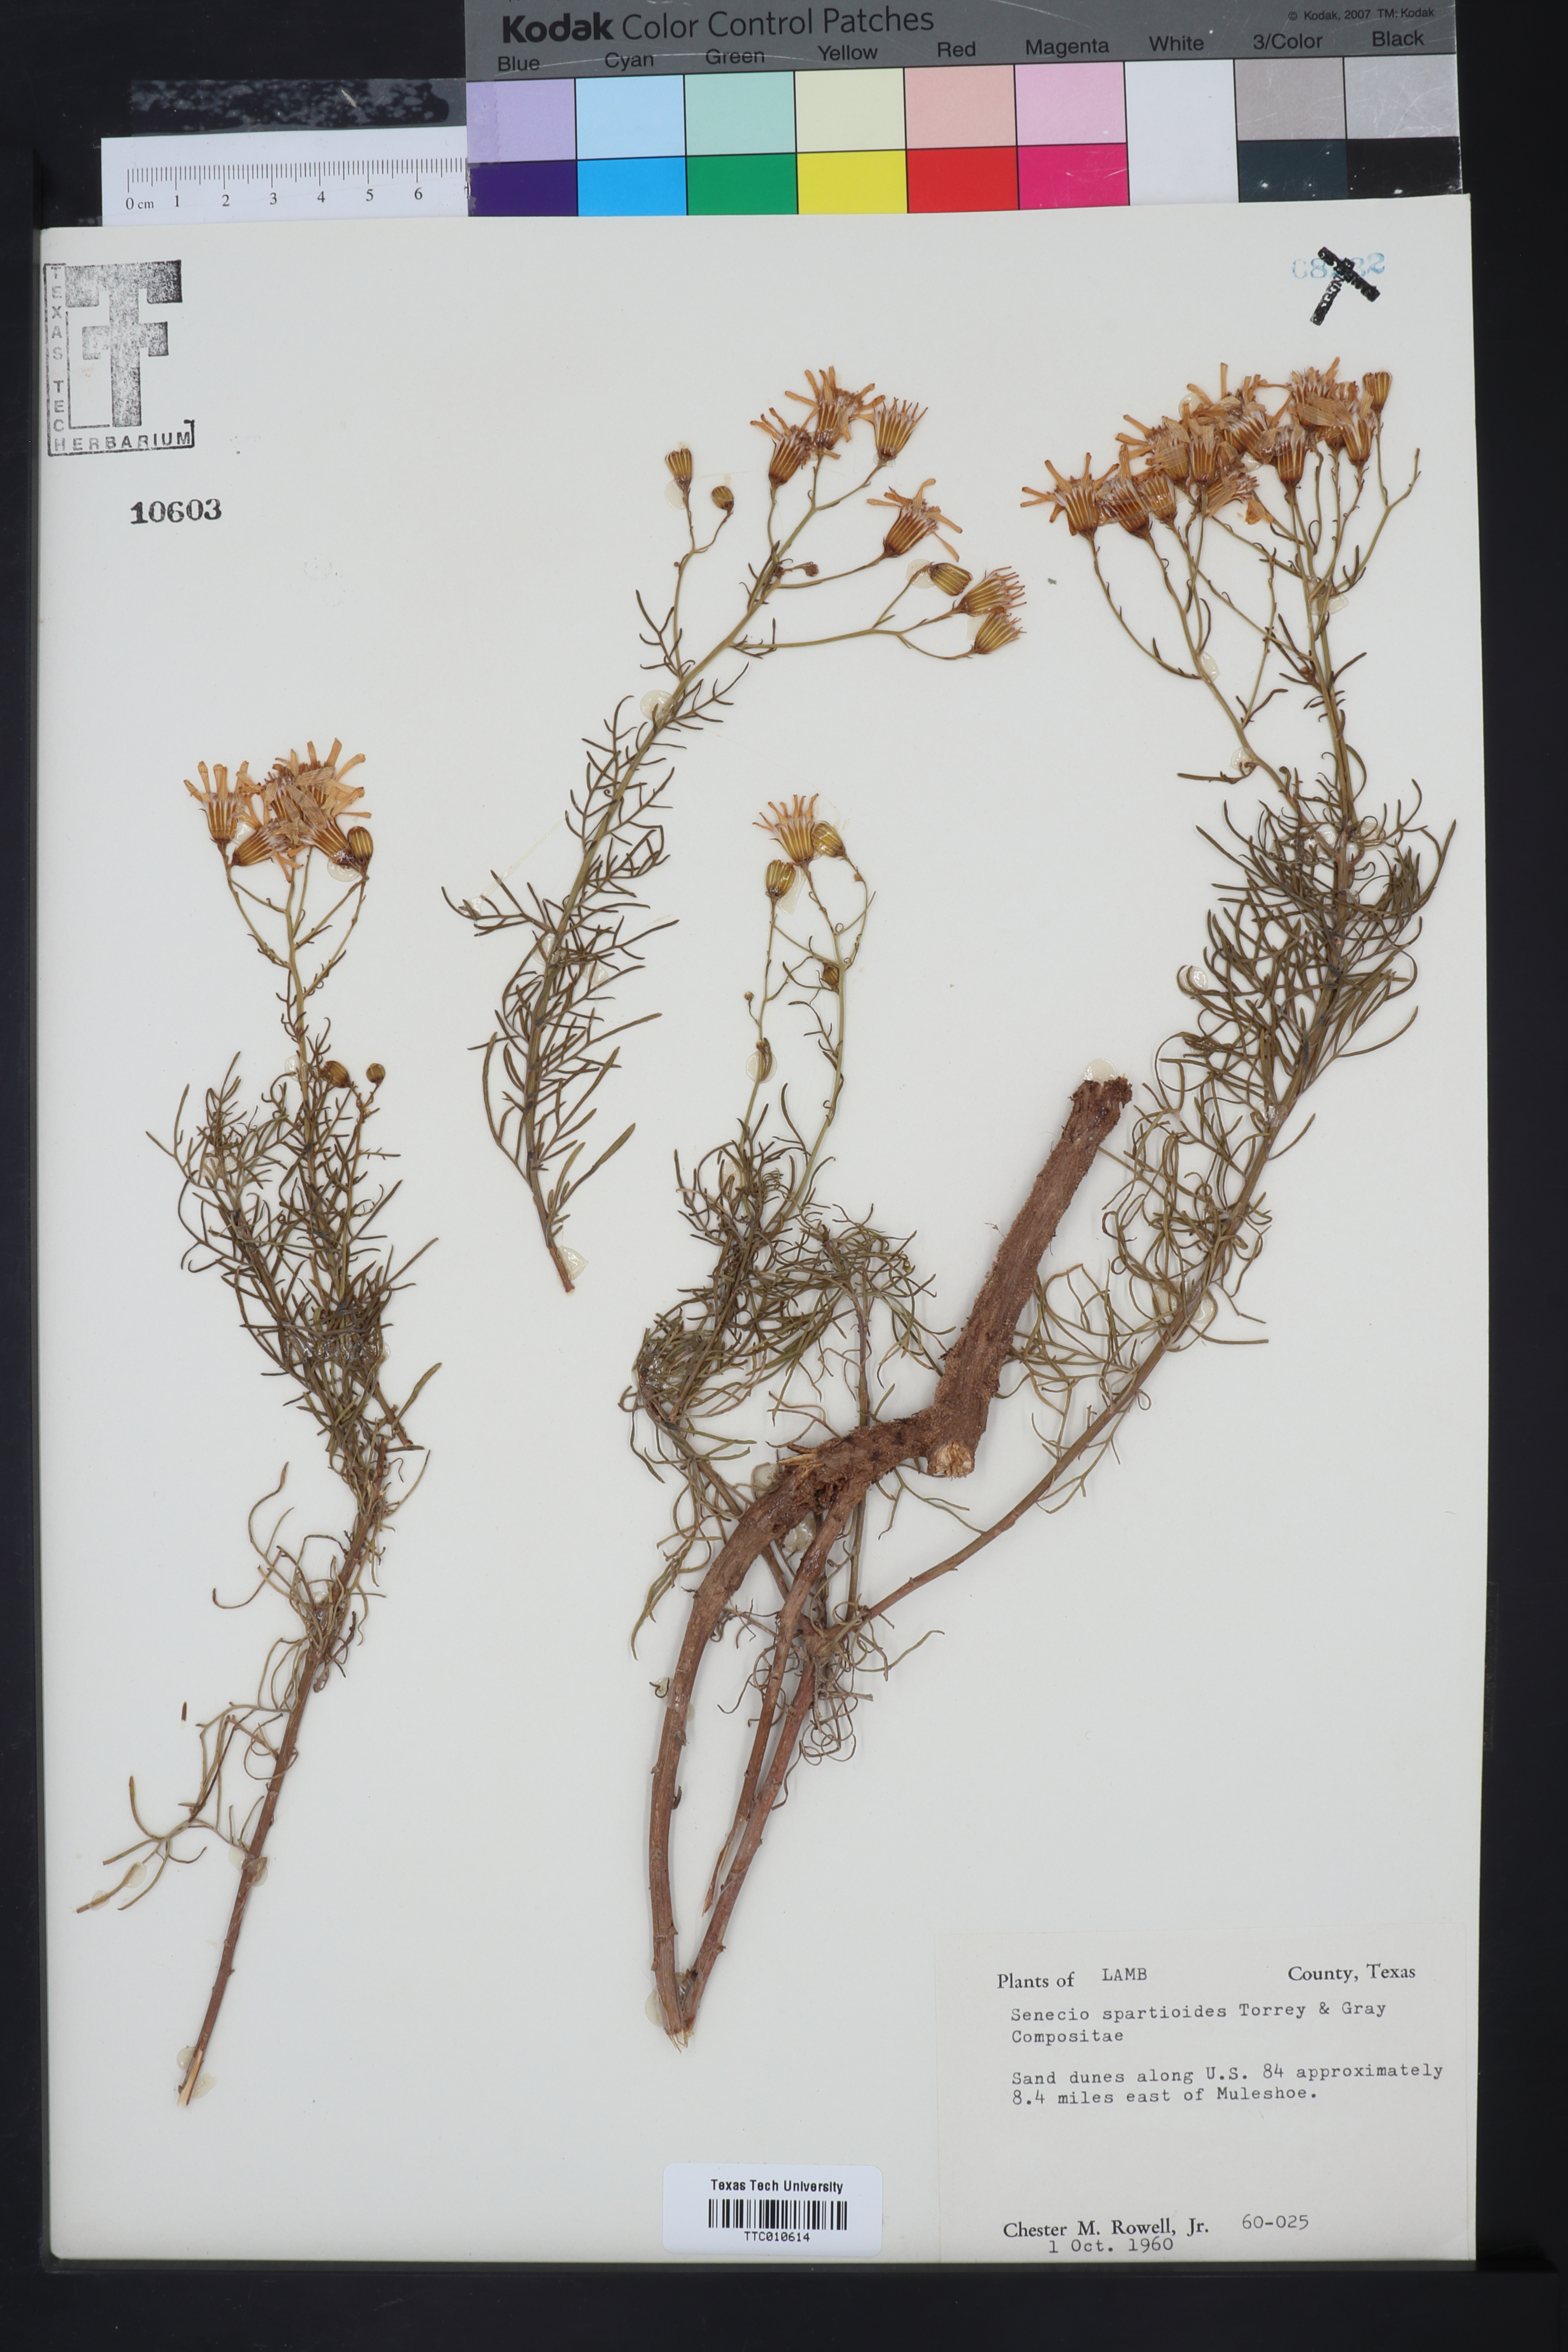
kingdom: Plantae
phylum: Tracheophyta
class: Magnoliopsida
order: Asterales
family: Asteraceae
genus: Senecio
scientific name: Senecio spartioides
